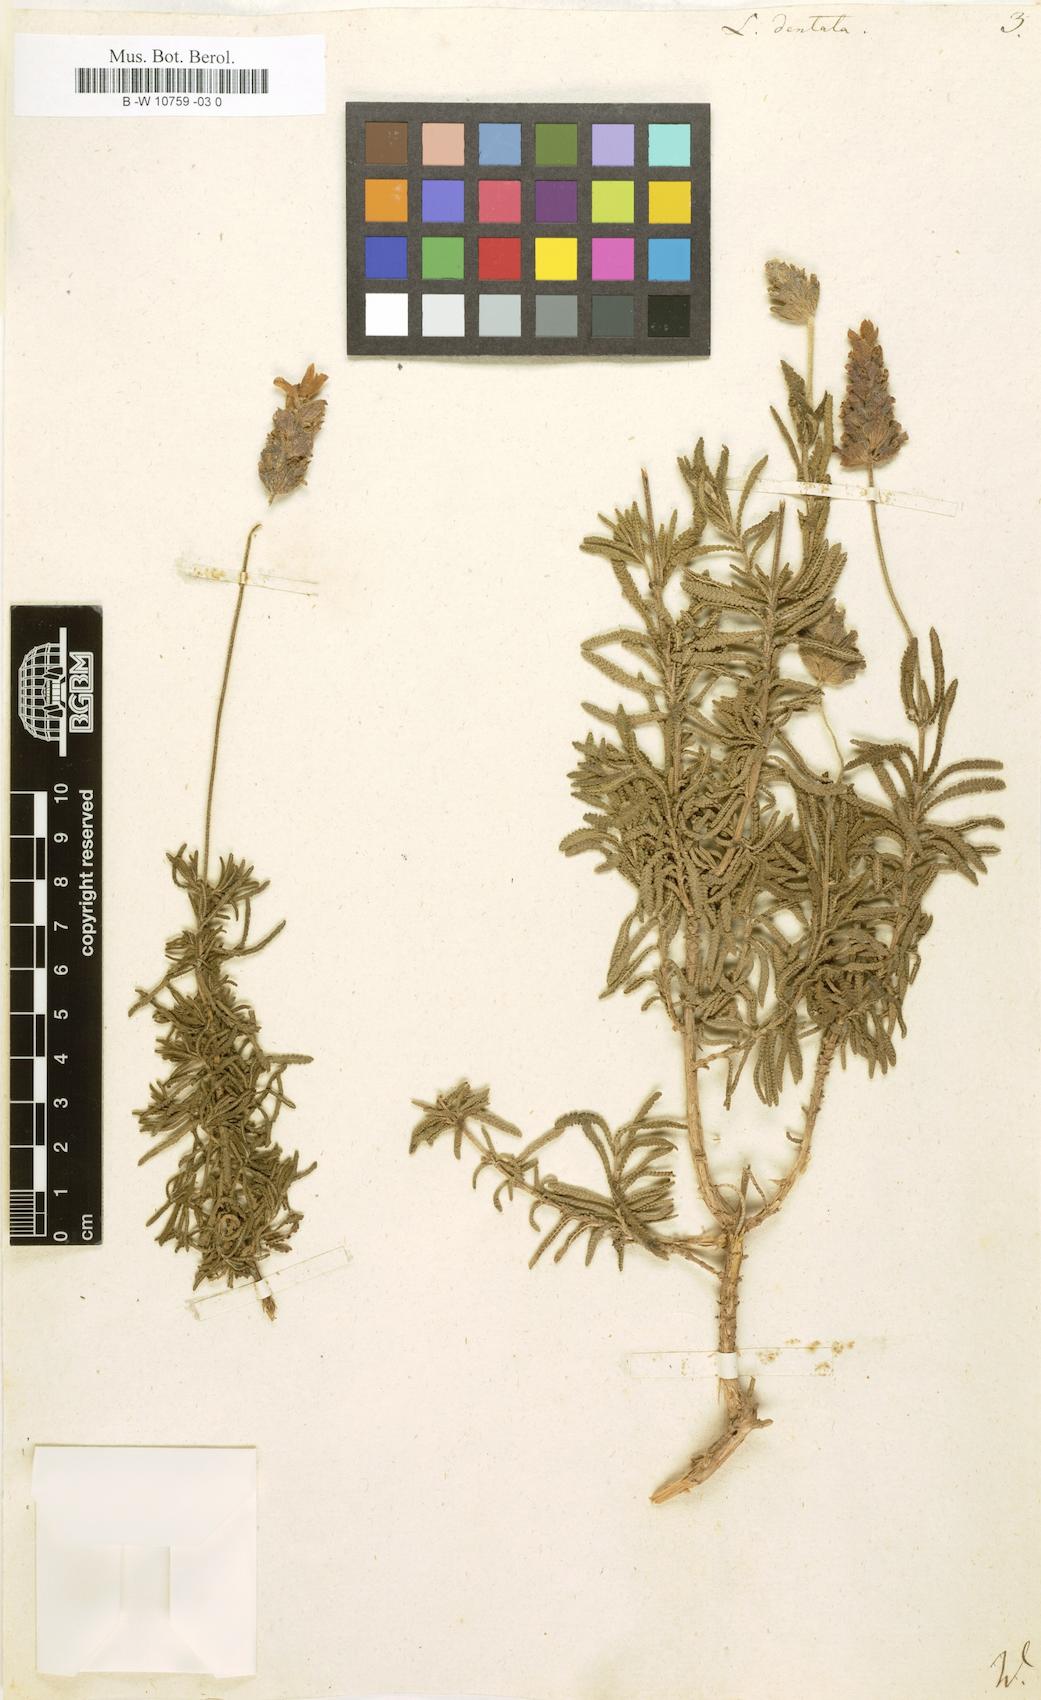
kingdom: Plantae
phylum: Tracheophyta
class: Magnoliopsida
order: Lamiales
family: Lamiaceae
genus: Lavandula
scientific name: Lavandula dentata
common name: French lavender
